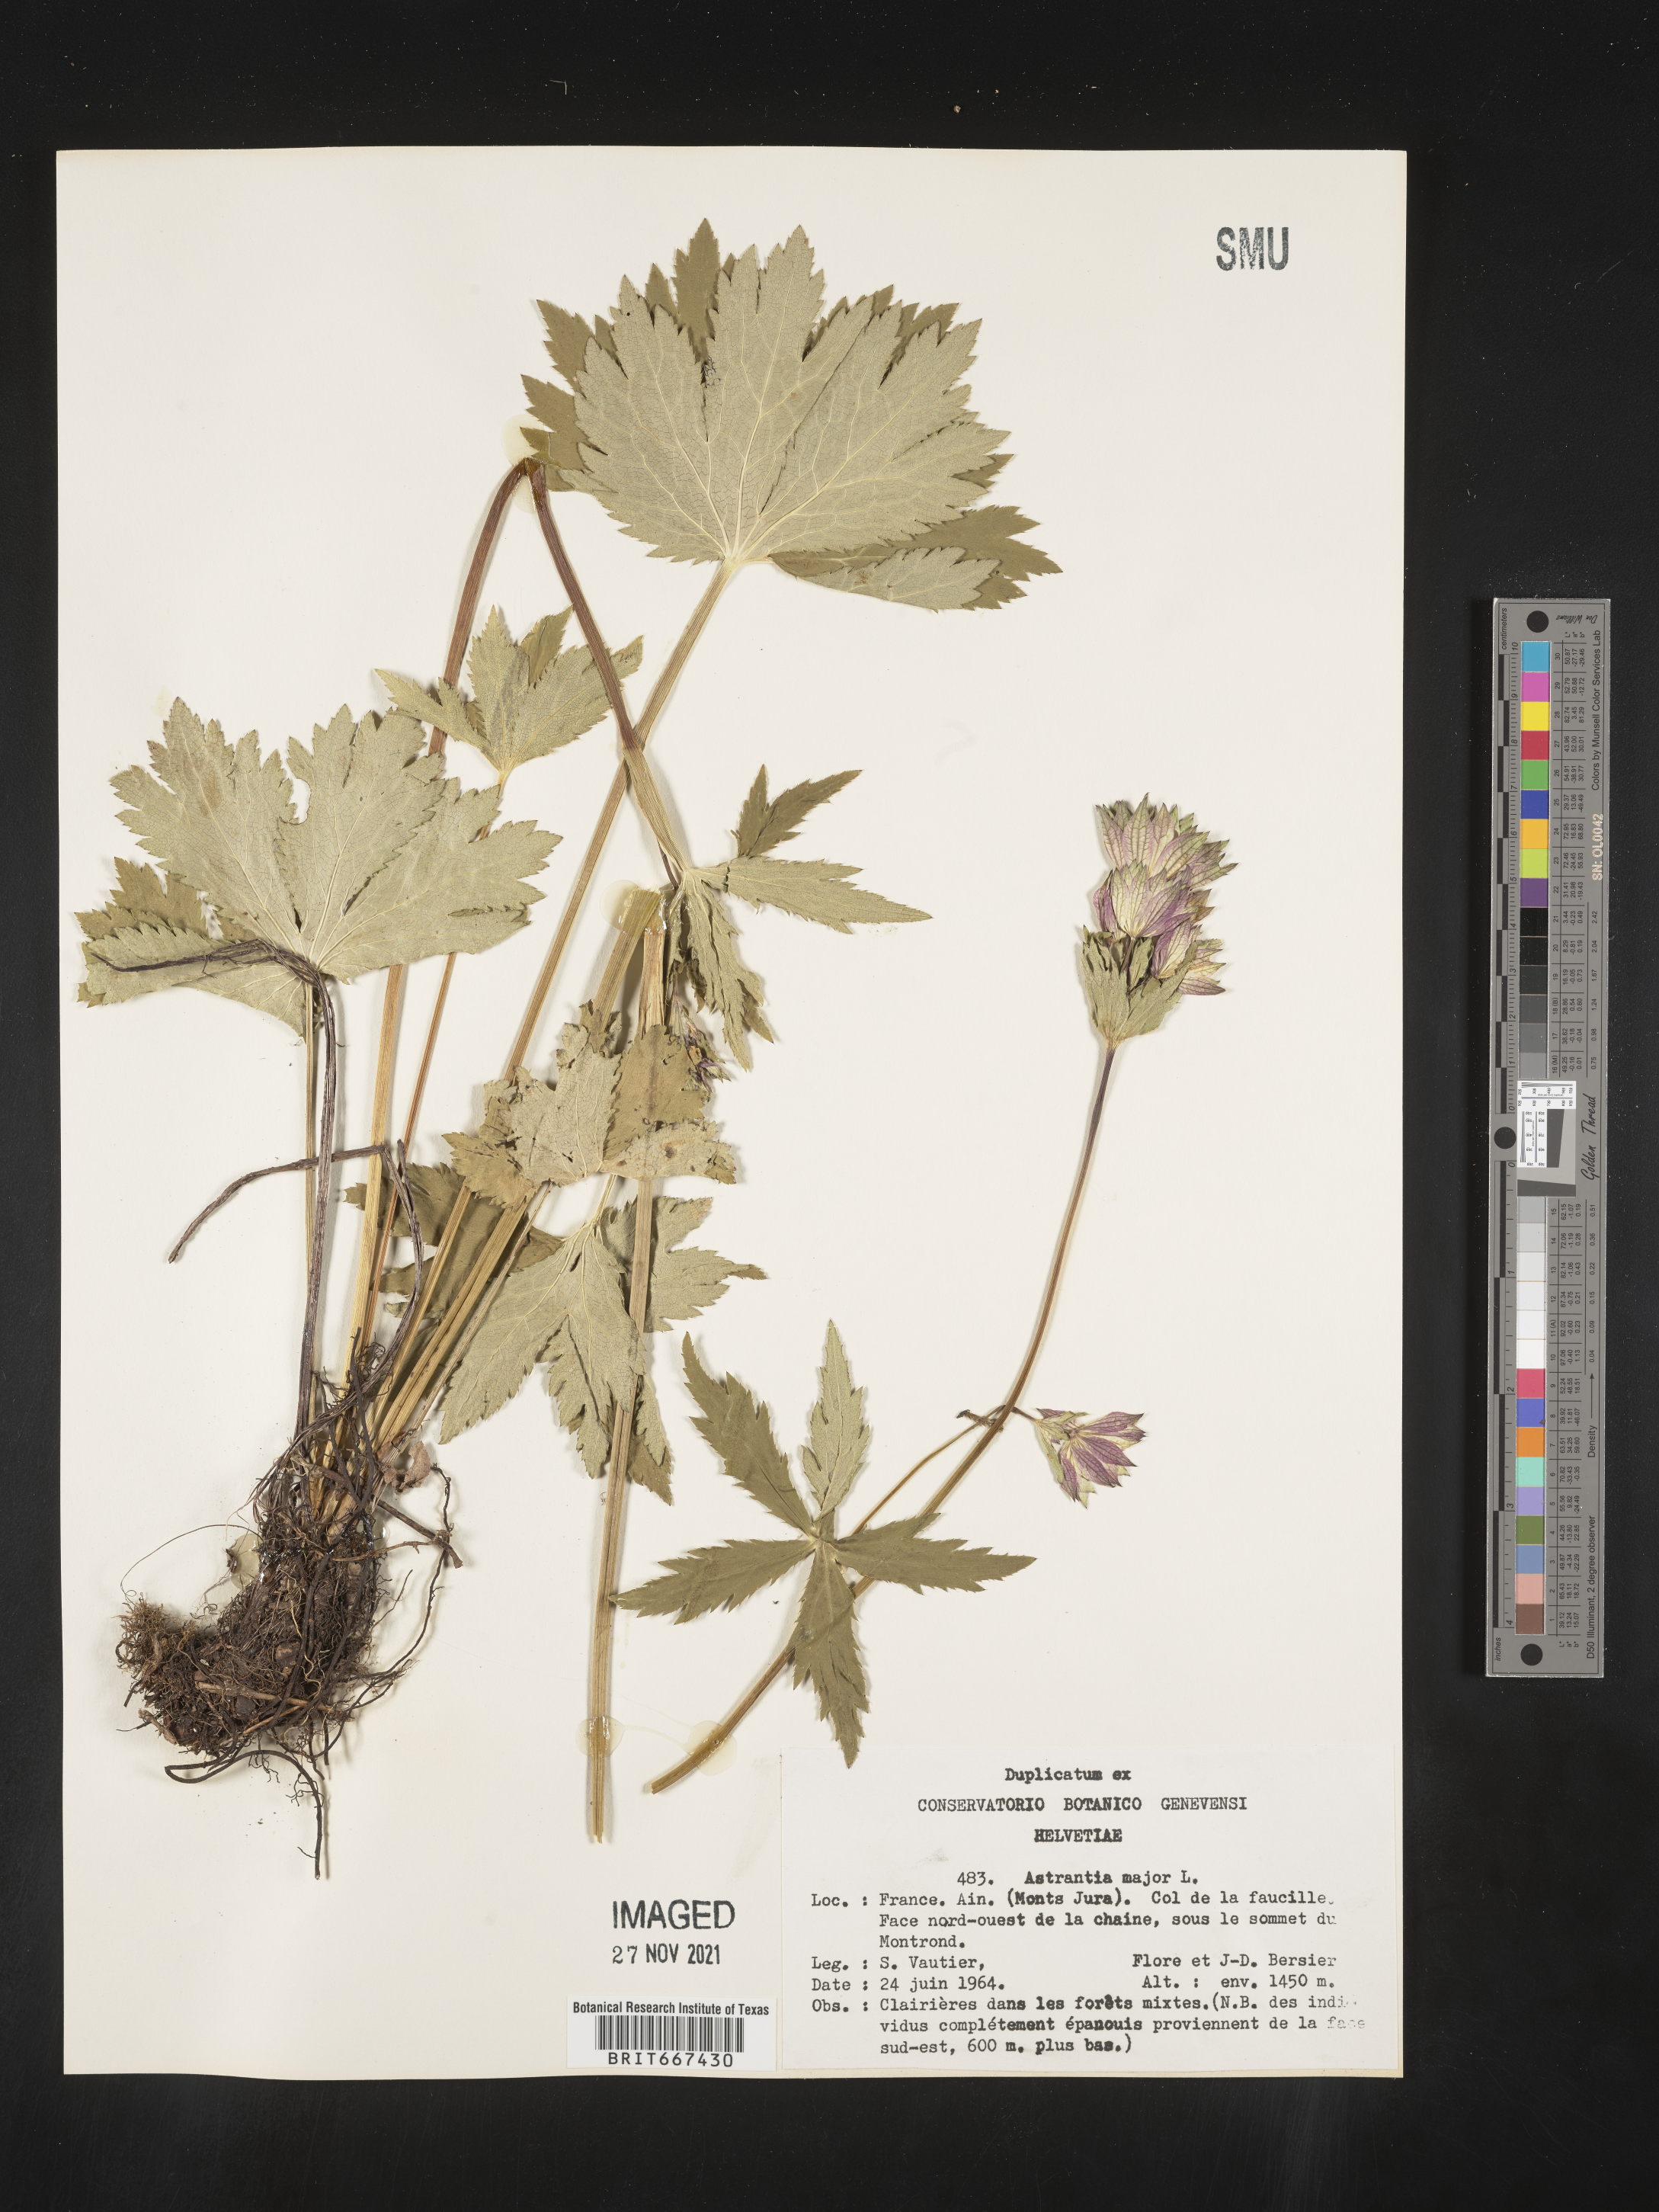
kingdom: Plantae
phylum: Tracheophyta
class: Magnoliopsida
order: Apiales
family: Apiaceae
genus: Astrantia
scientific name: Astrantia
